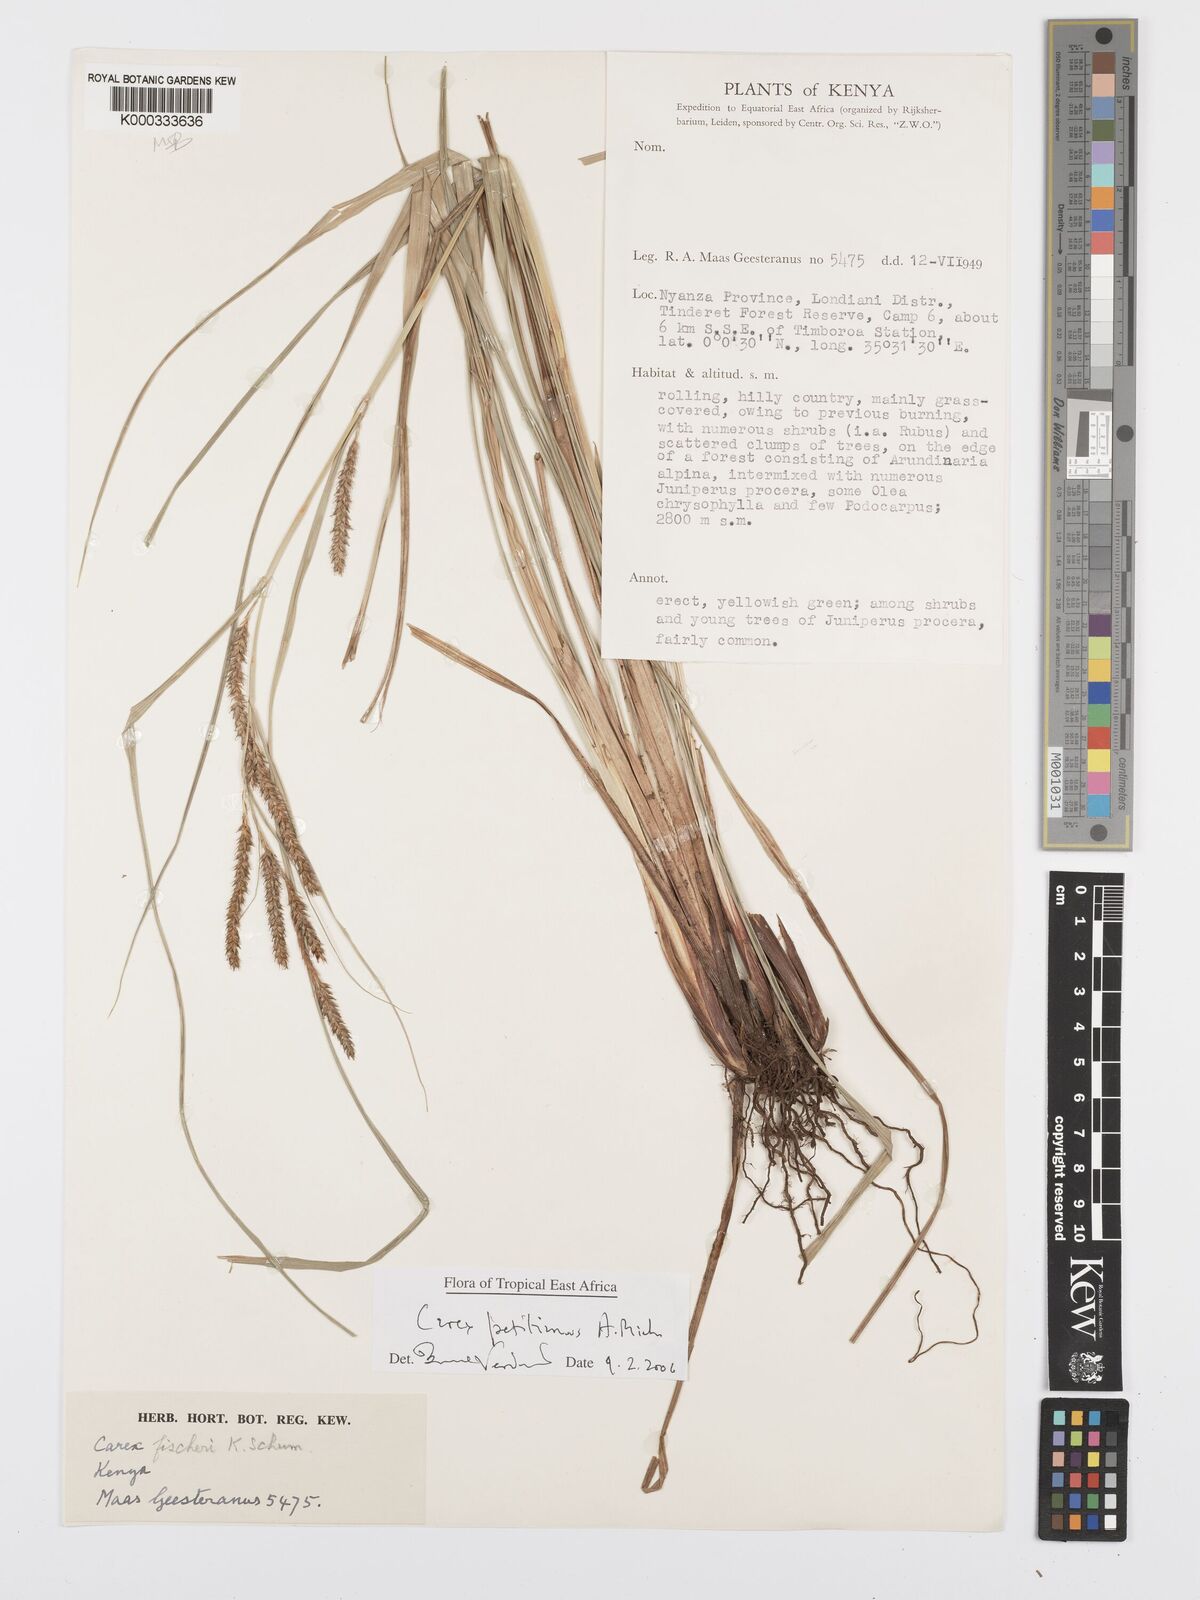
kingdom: Plantae
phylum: Tracheophyta
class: Liliopsida
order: Poales
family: Cyperaceae
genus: Carex
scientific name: Carex petitiana
